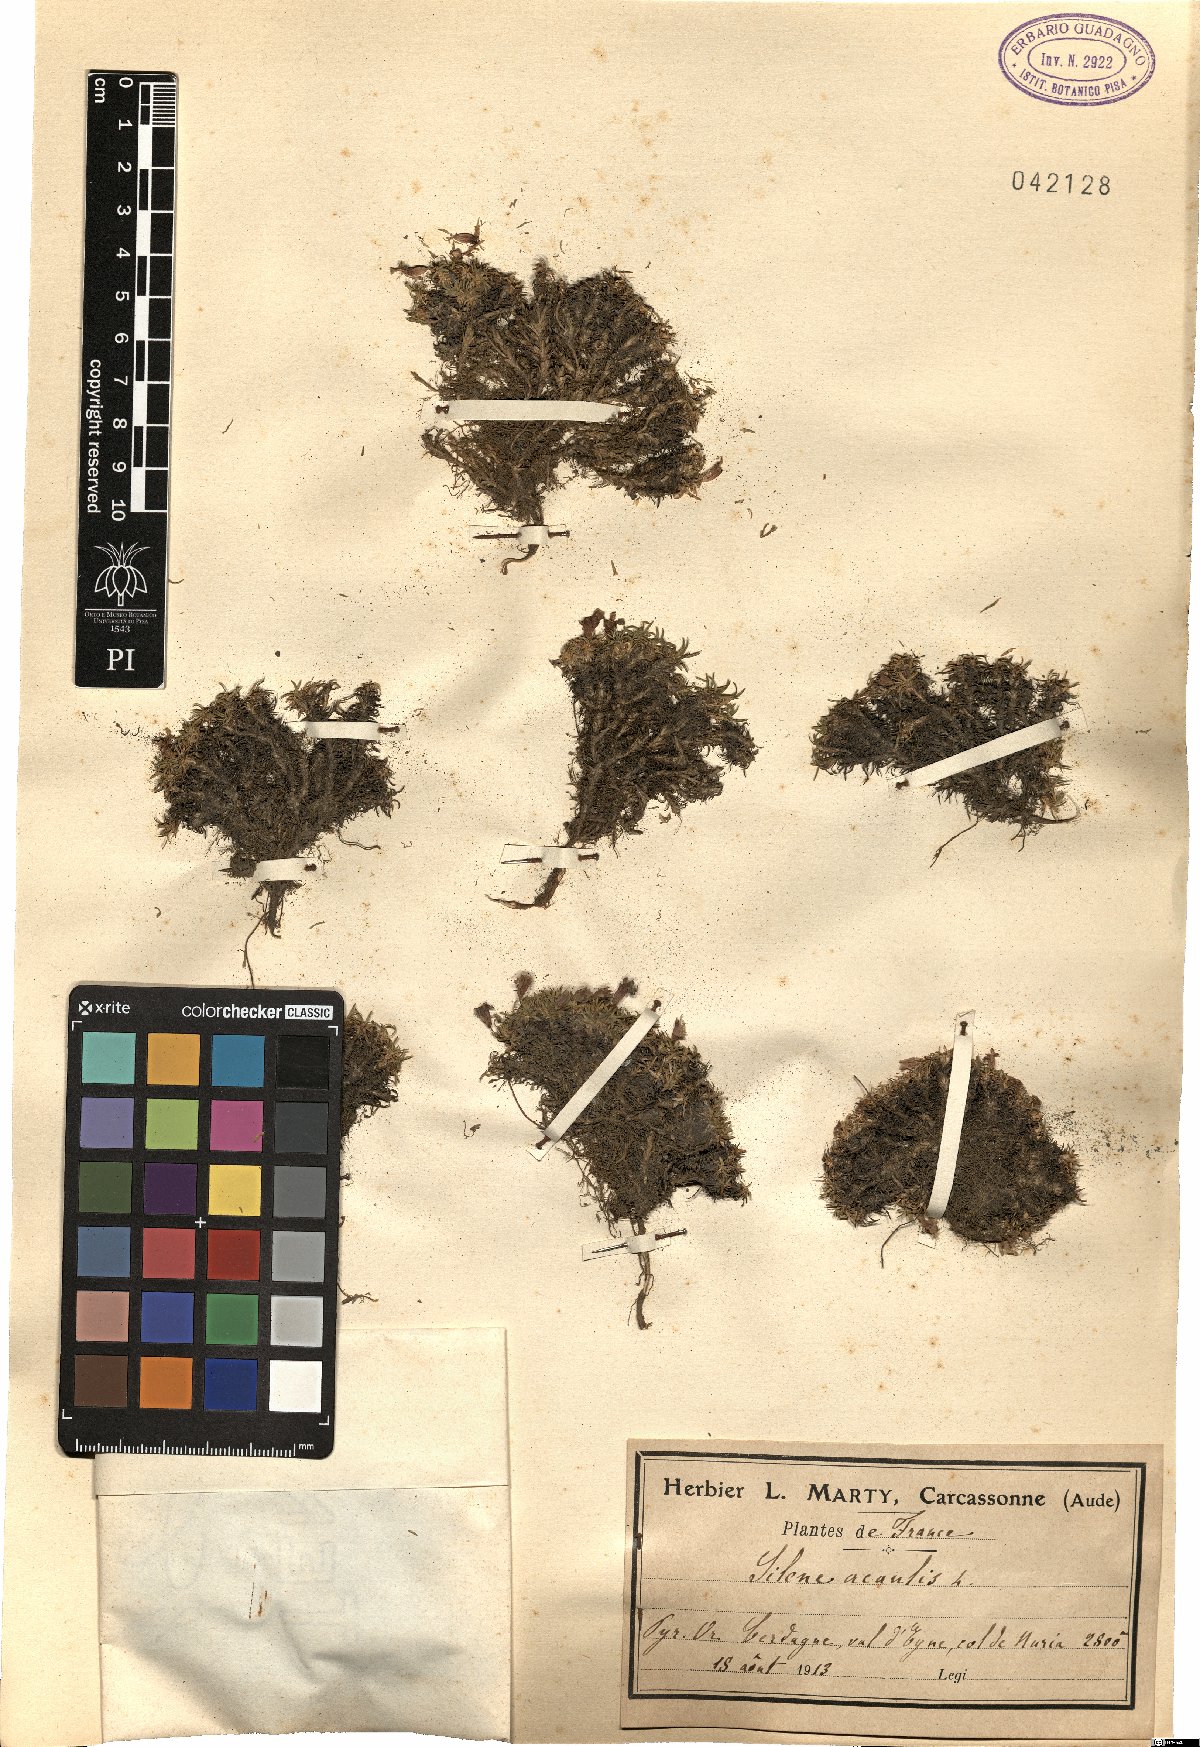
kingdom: Plantae
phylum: Tracheophyta
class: Magnoliopsida
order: Caryophyllales
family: Caryophyllaceae
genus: Silene
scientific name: Silene acaulis
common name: Moss campion
